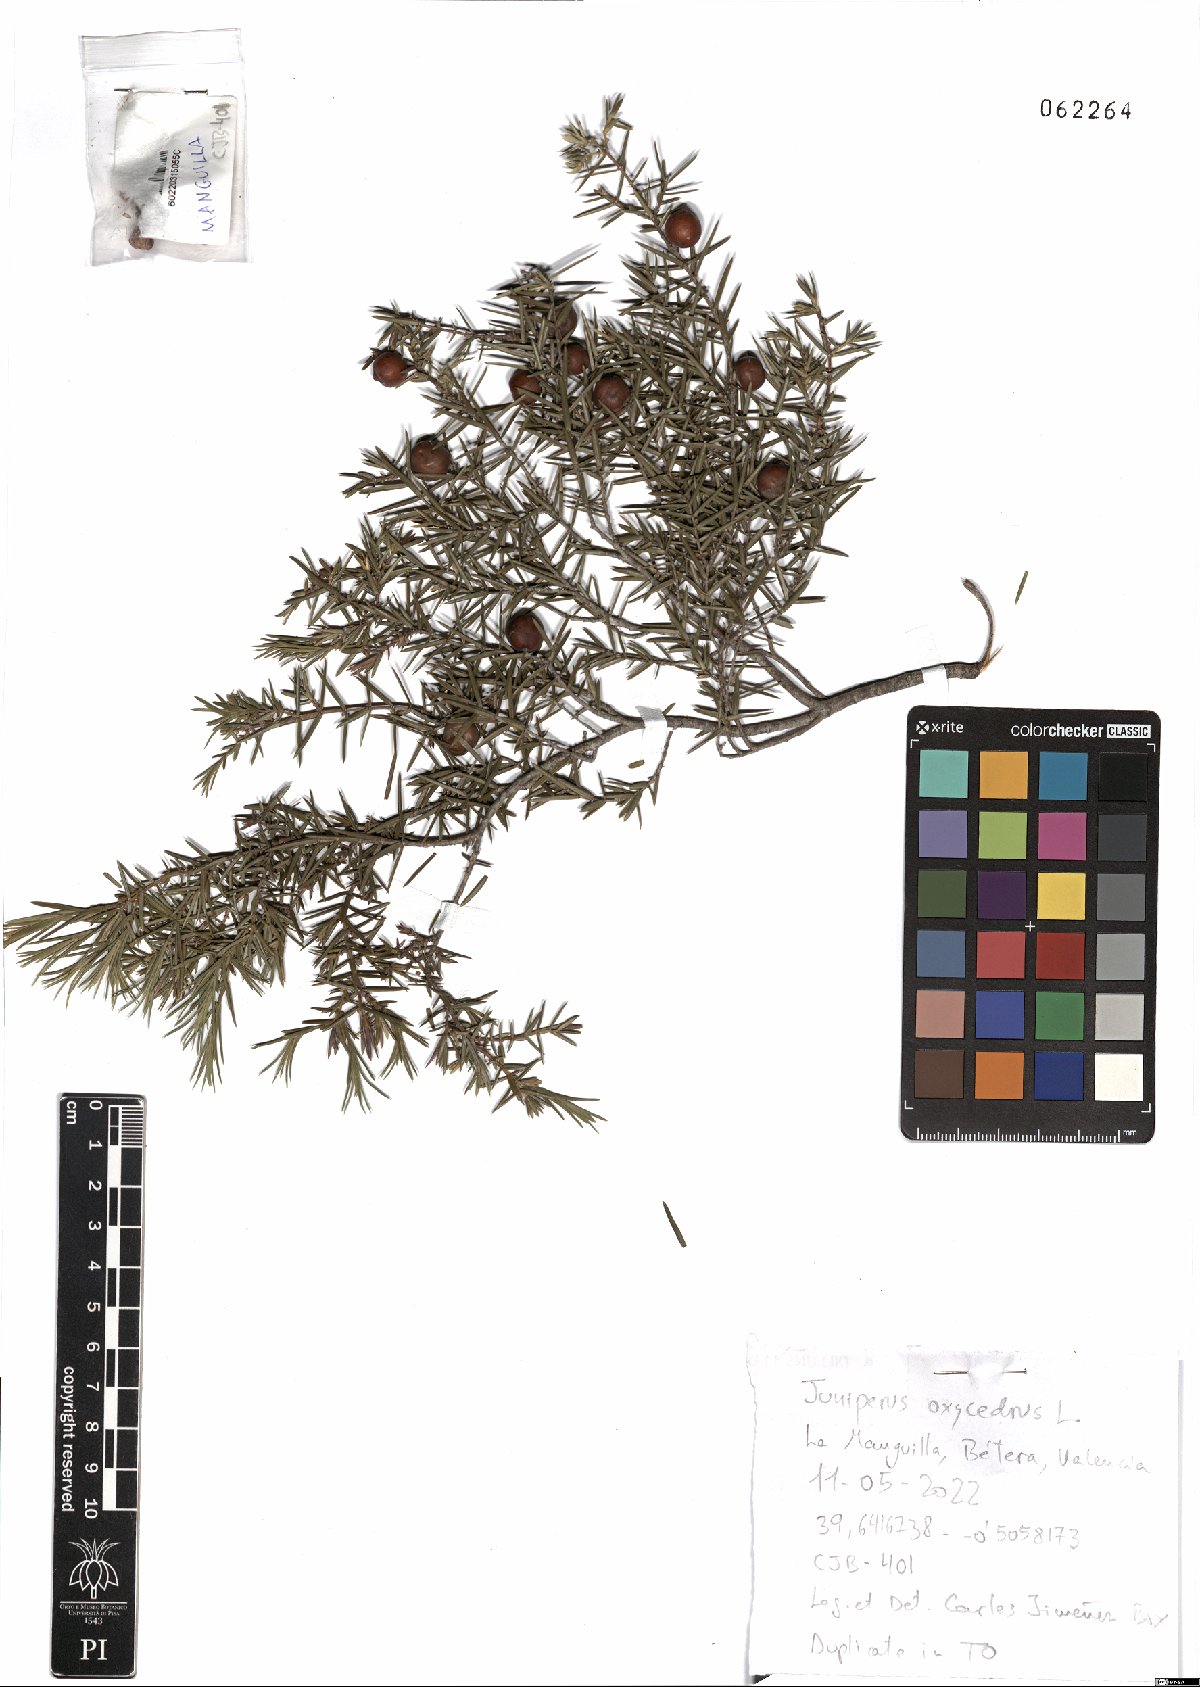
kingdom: Plantae
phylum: Tracheophyta
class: Pinopsida
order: Pinales
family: Cupressaceae
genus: Juniperus
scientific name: Juniperus oxycedrus
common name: Prickly juniper
